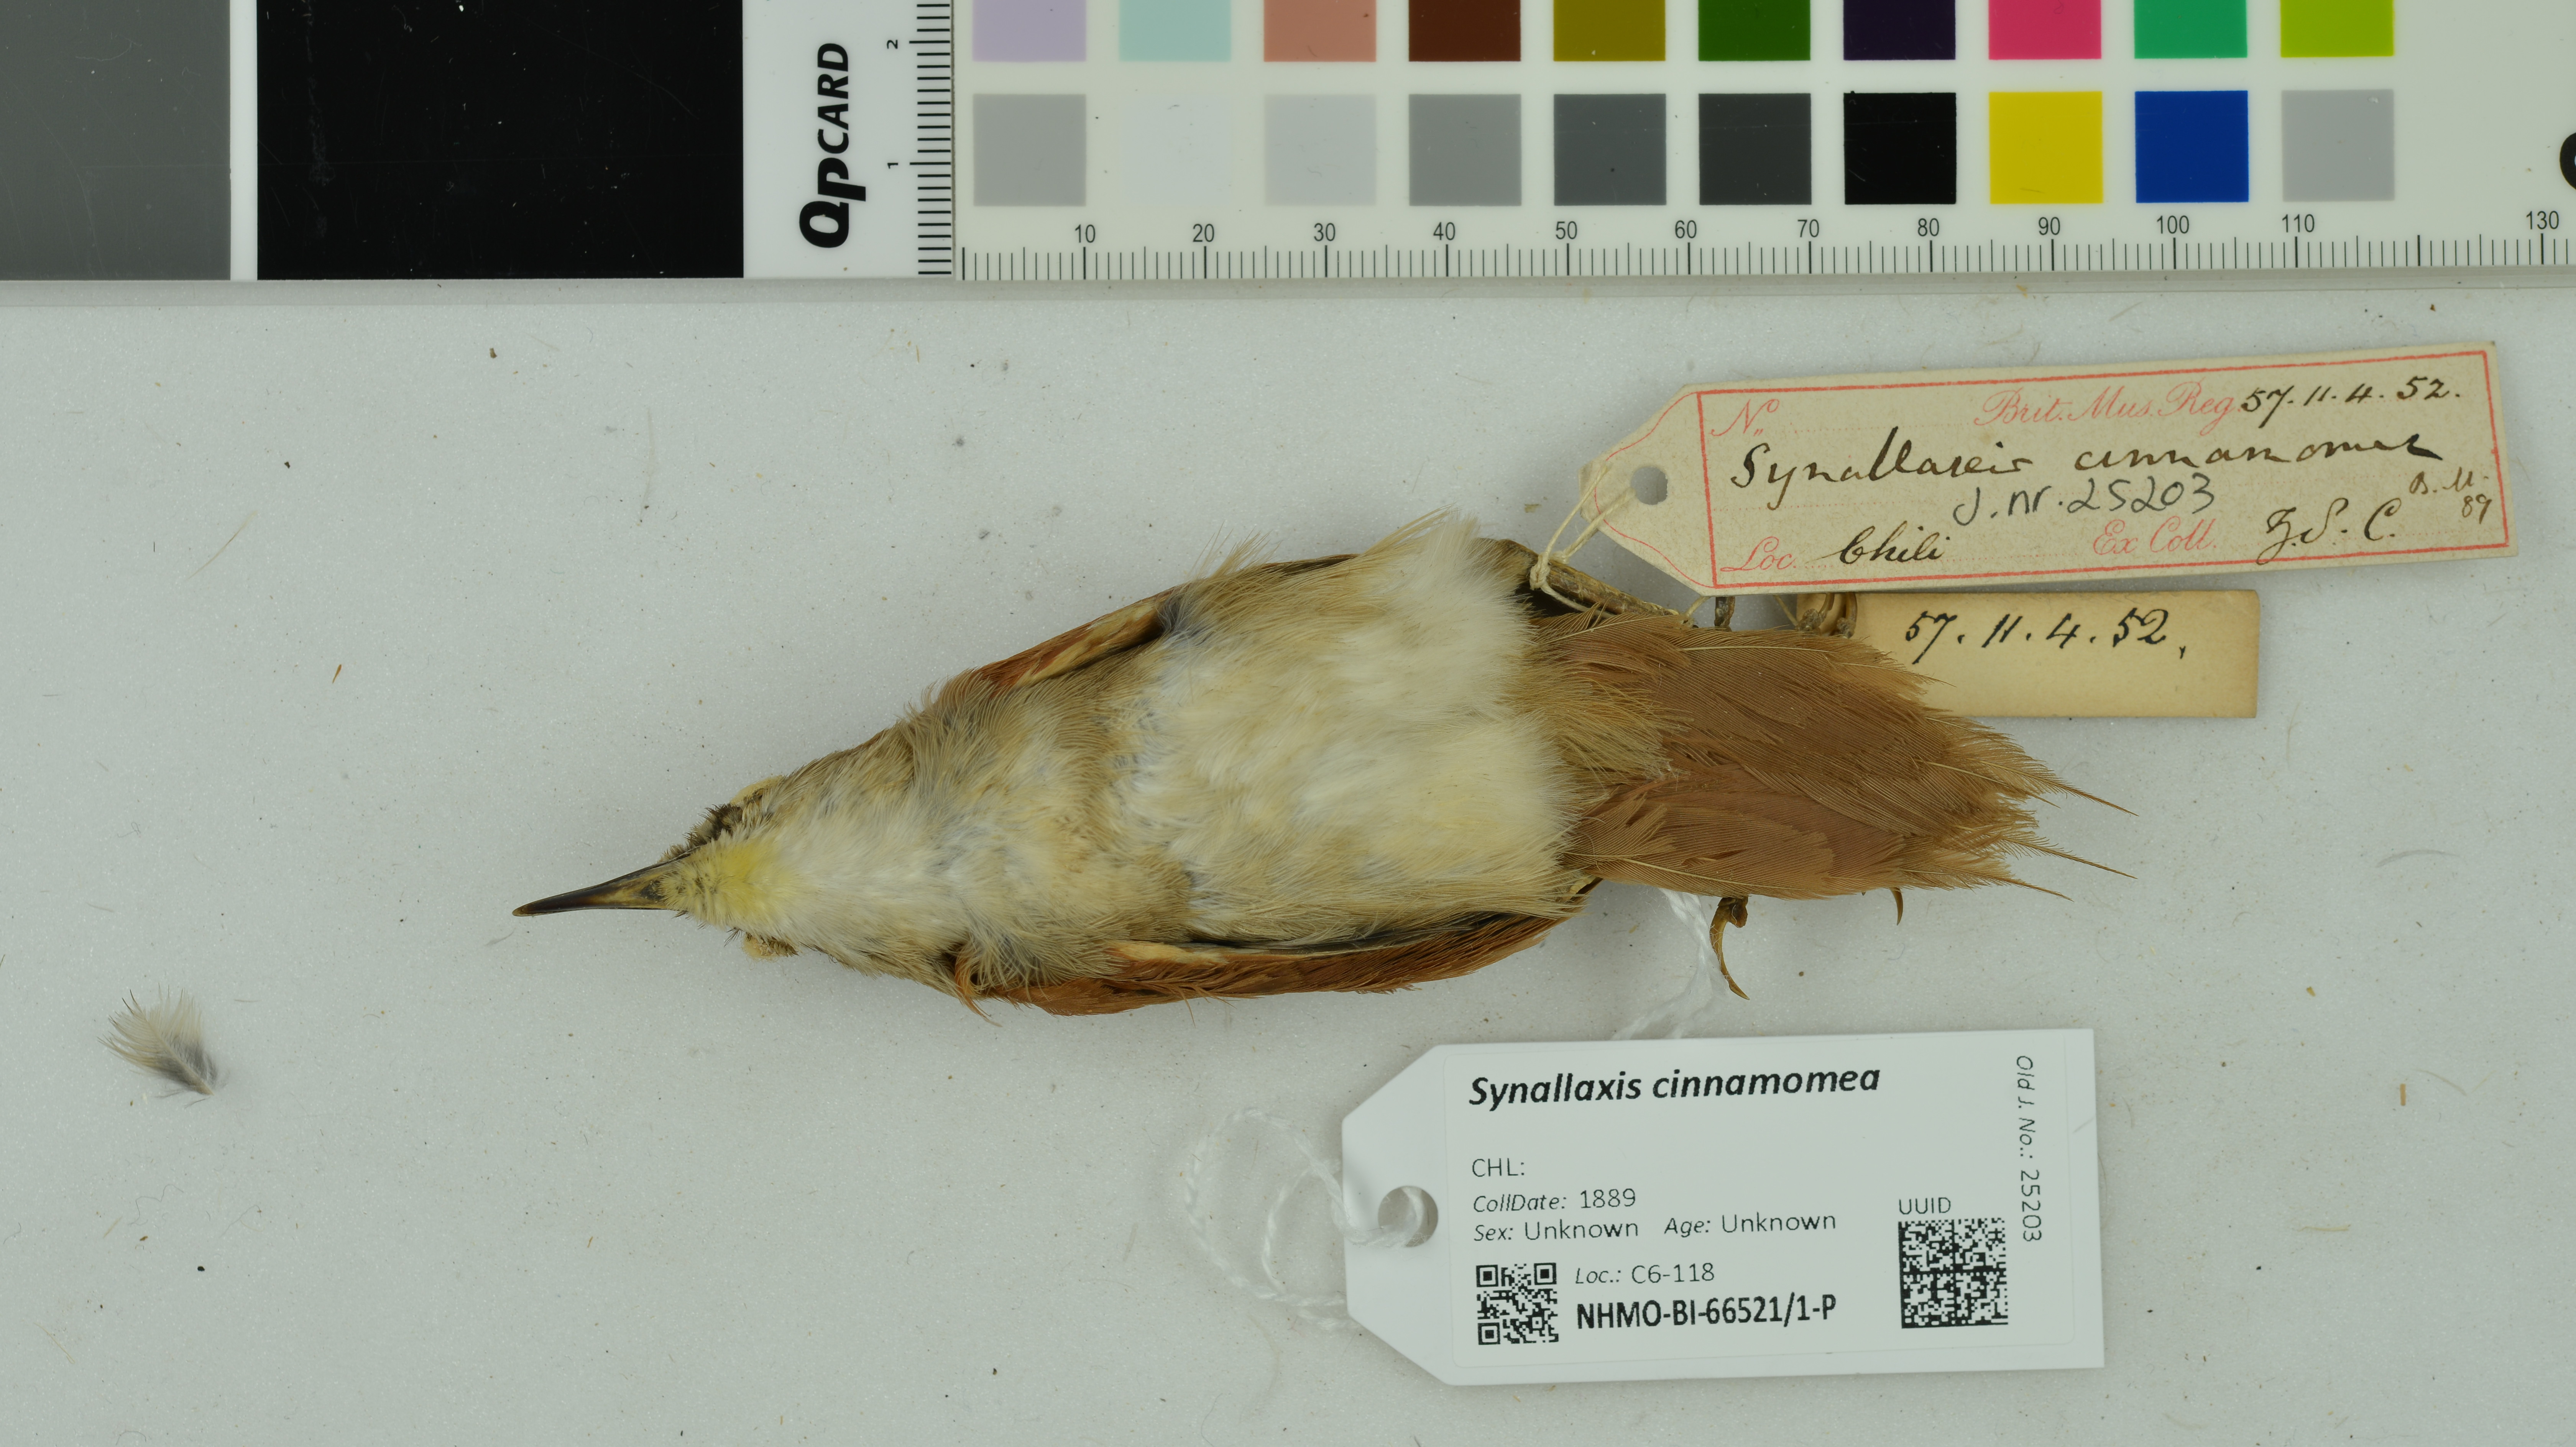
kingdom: Animalia
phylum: Chordata
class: Aves
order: Passeriformes
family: Furnariidae
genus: Synallaxis
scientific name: Synallaxis cinnamomea
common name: Stripe-breasted spinetail
